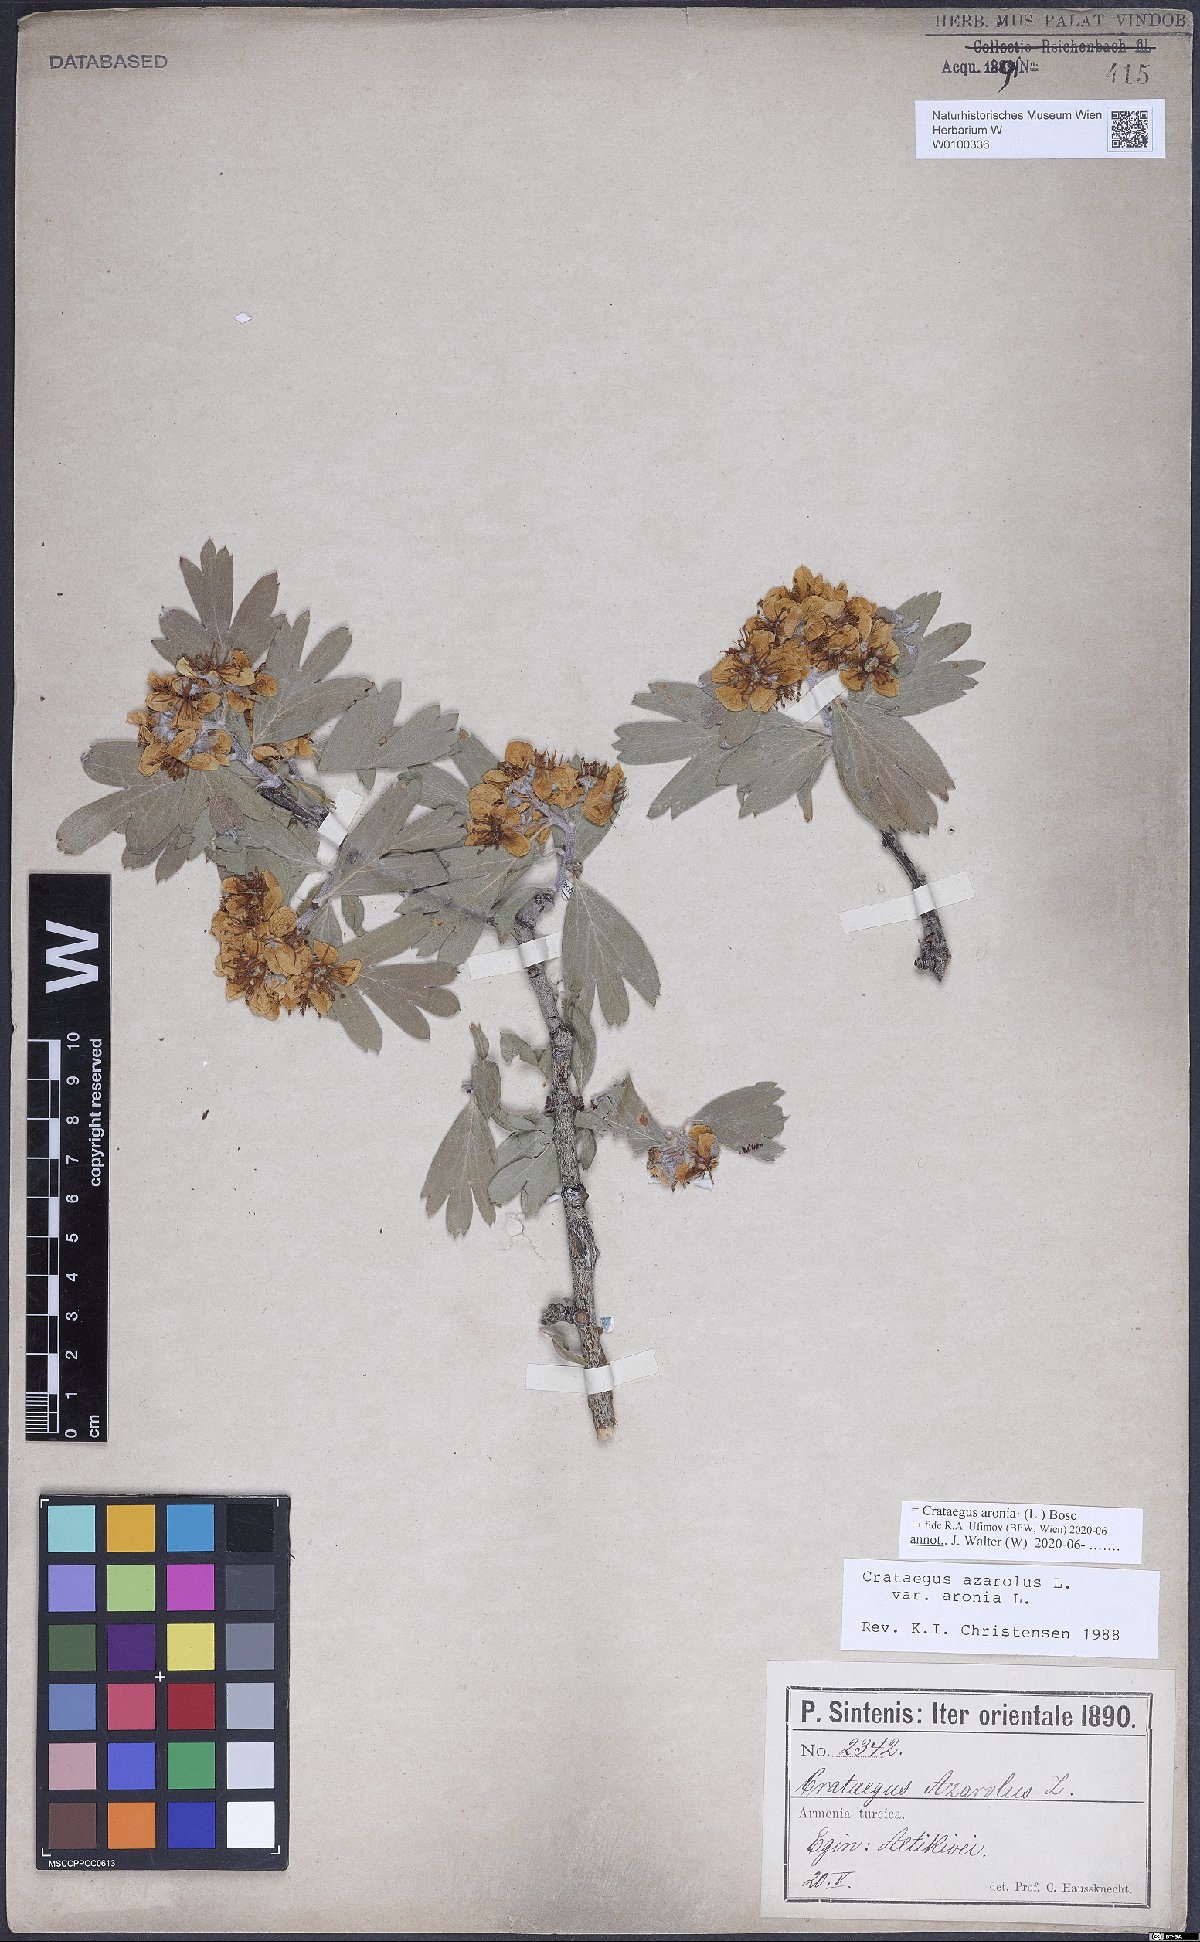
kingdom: Plantae
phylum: Tracheophyta
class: Magnoliopsida
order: Rosales
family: Rosaceae
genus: Crataegus
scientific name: Crataegus azarolus
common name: Azarole
